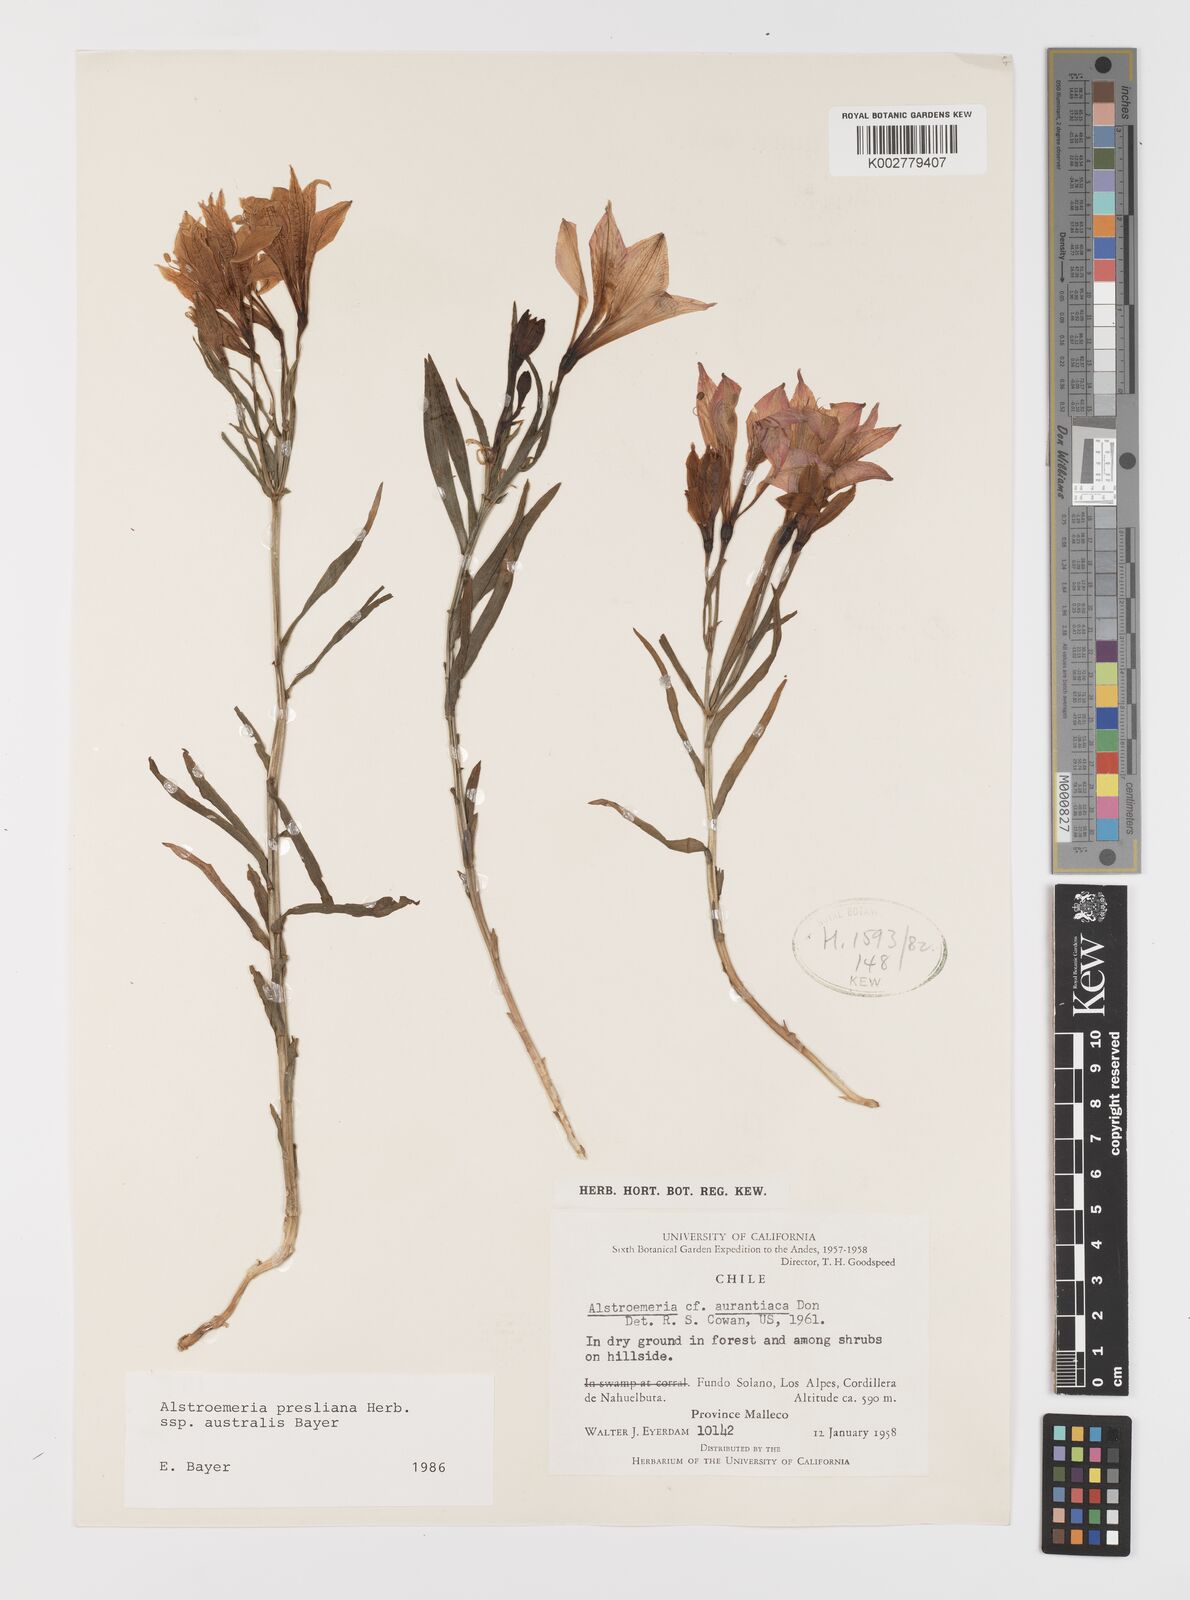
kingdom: Plantae
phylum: Tracheophyta
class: Liliopsida
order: Liliales
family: Alstroemeriaceae
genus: Alstroemeria
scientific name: Alstroemeria presliana
